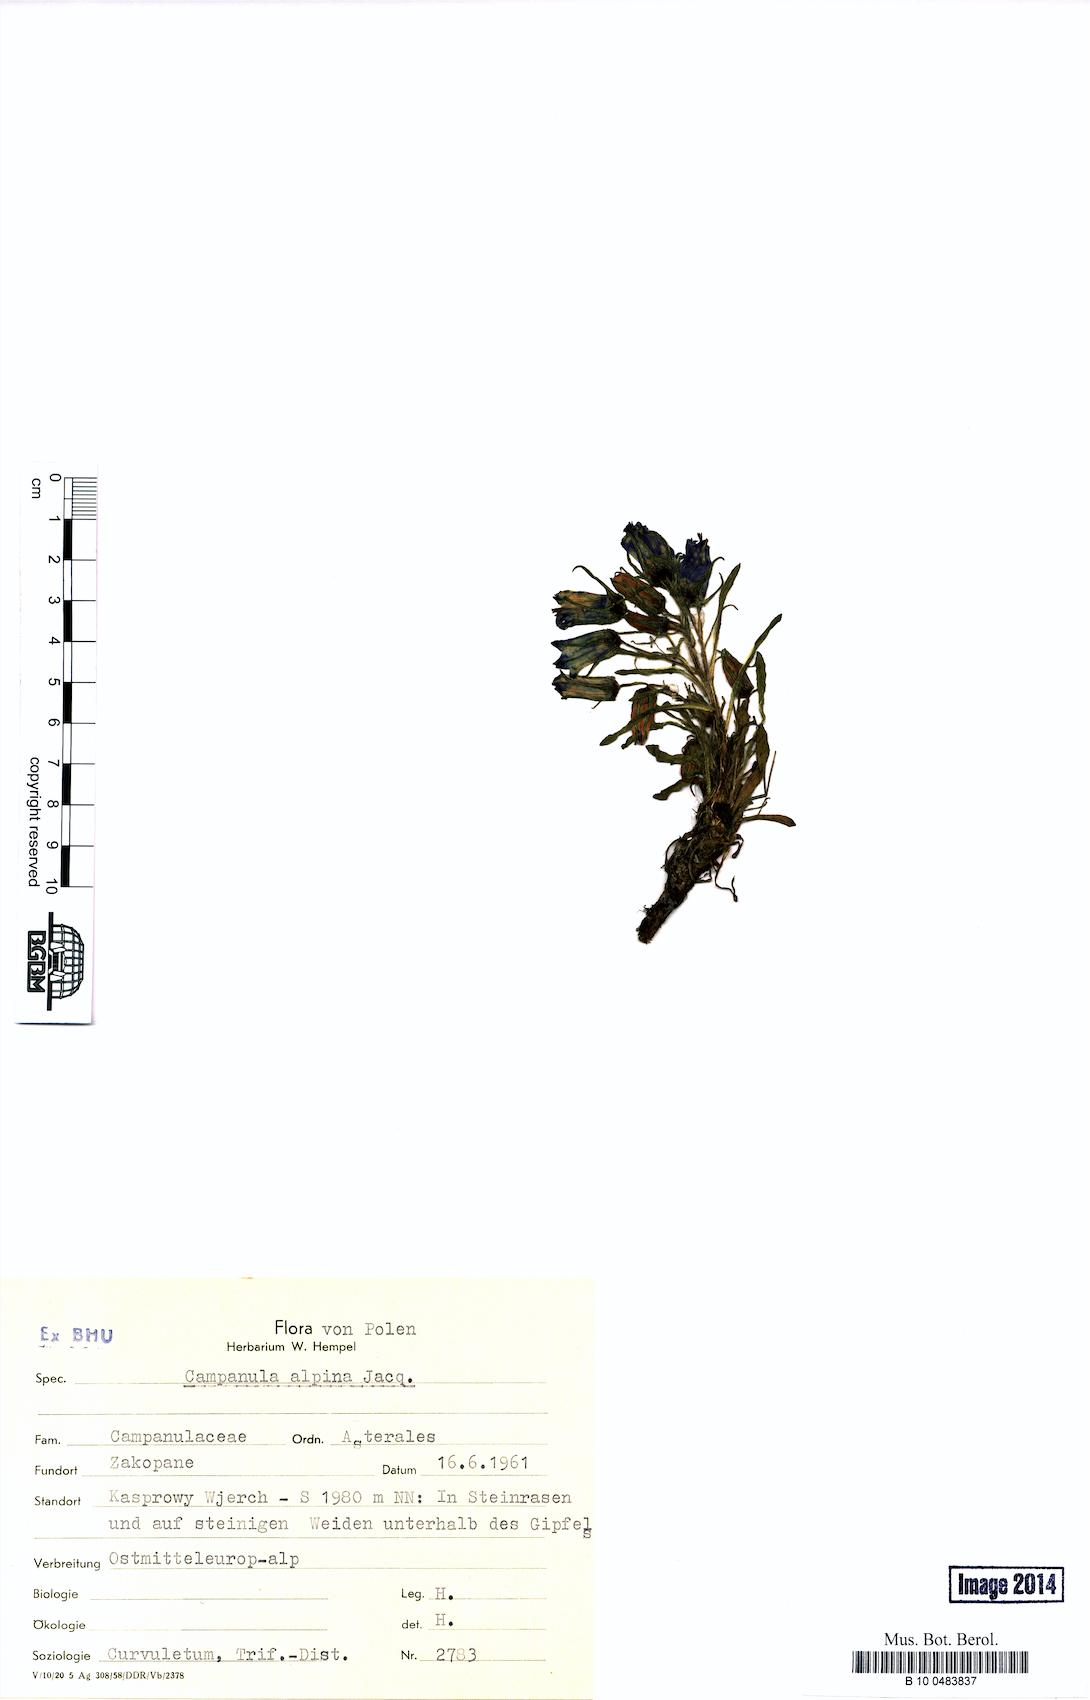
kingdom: Plantae
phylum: Tracheophyta
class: Magnoliopsida
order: Asterales
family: Campanulaceae
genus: Campanula
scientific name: Campanula alpina
